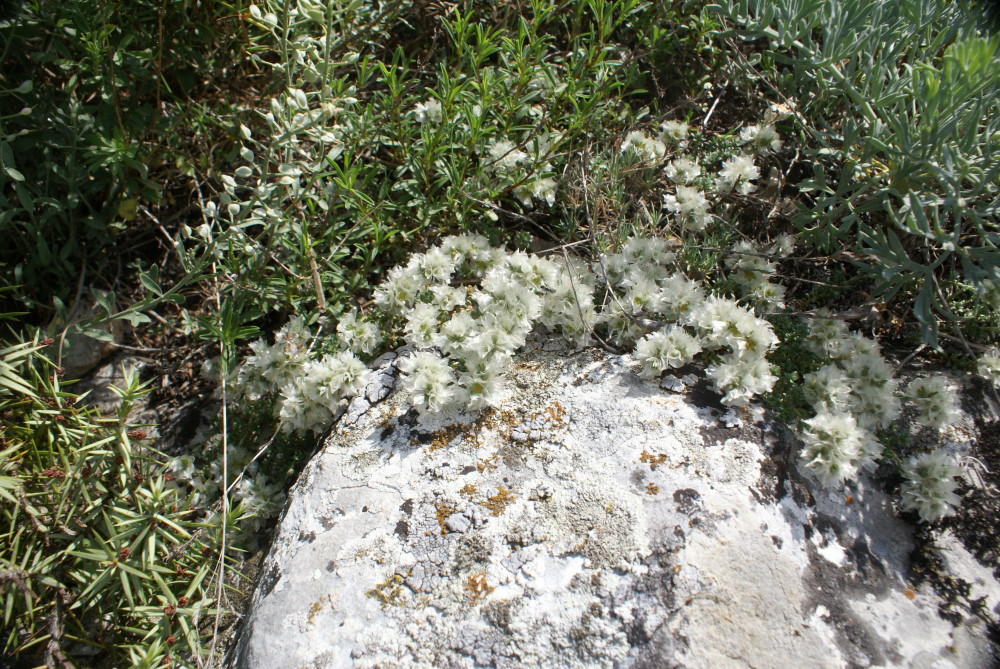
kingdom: Plantae
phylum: Tracheophyta
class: Magnoliopsida
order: Caryophyllales
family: Caryophyllaceae
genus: Paronychia
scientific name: Paronychia cephalotes
